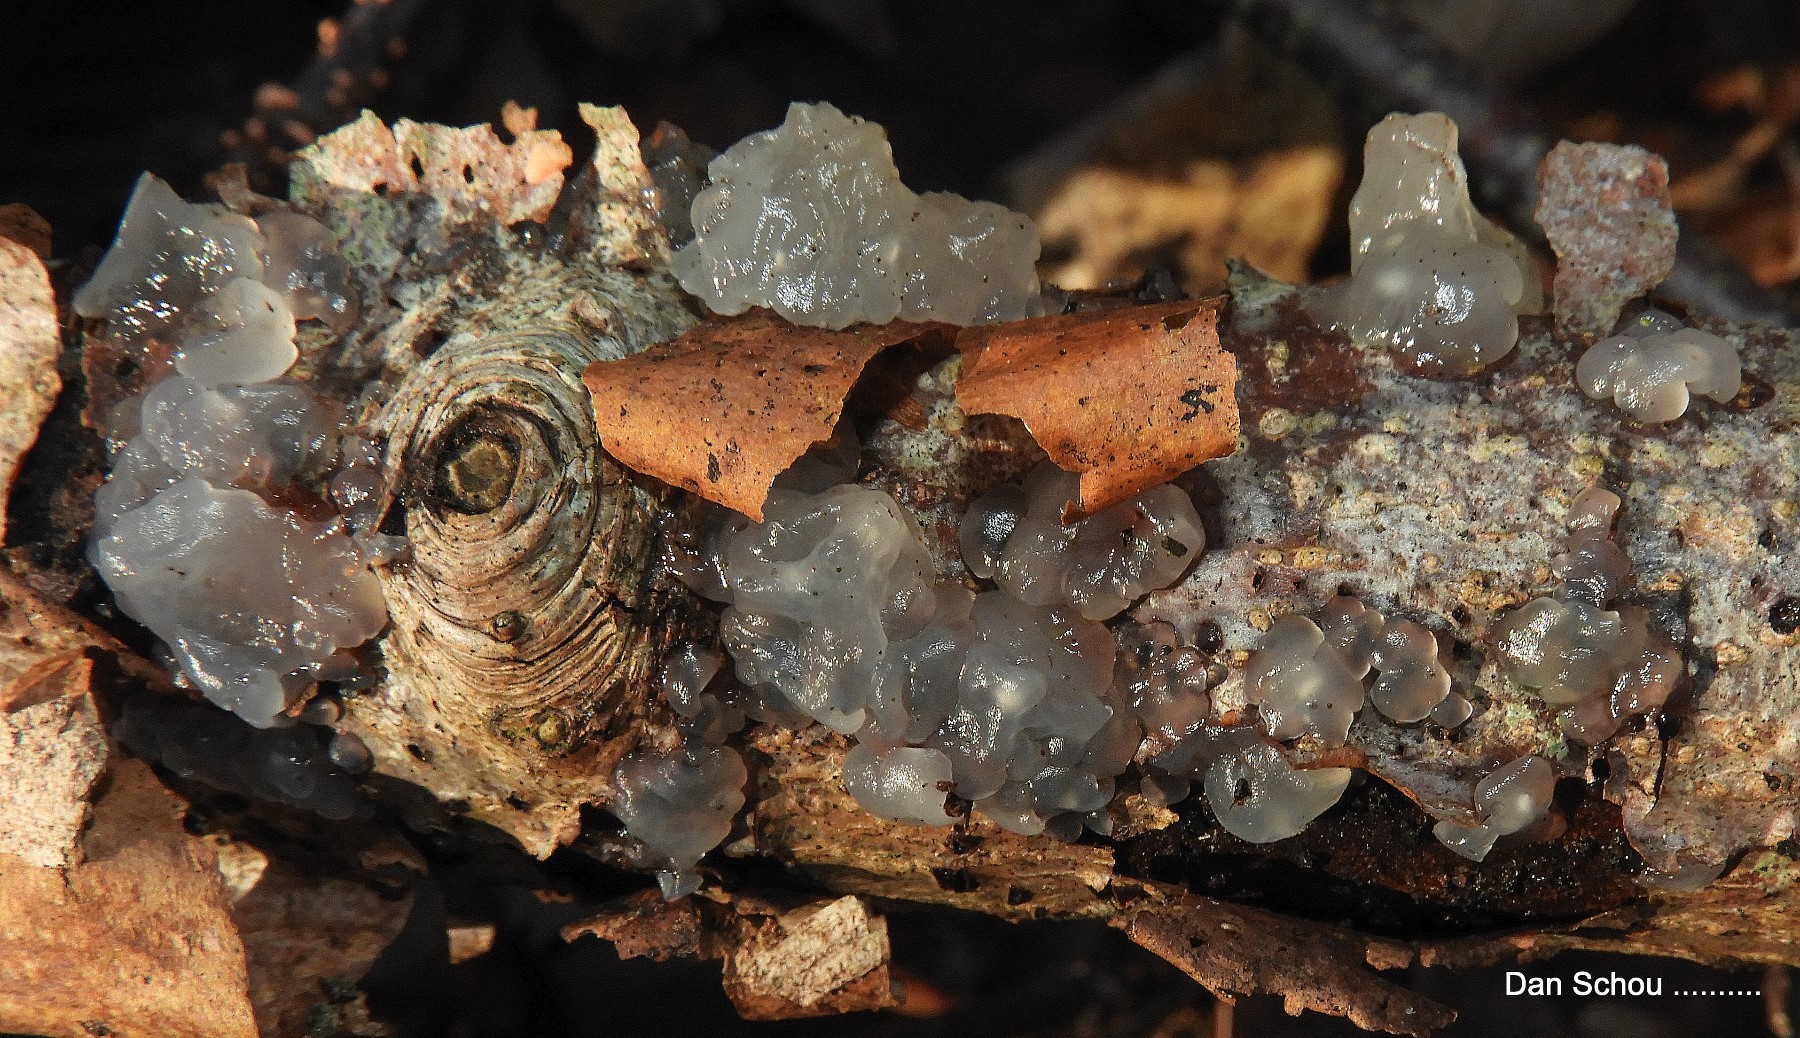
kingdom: Fungi
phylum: Basidiomycota
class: Agaricomycetes
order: Auriculariales
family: Hyaloriaceae
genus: Myxarium
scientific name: Myxarium nucleatum
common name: klar bævretop
